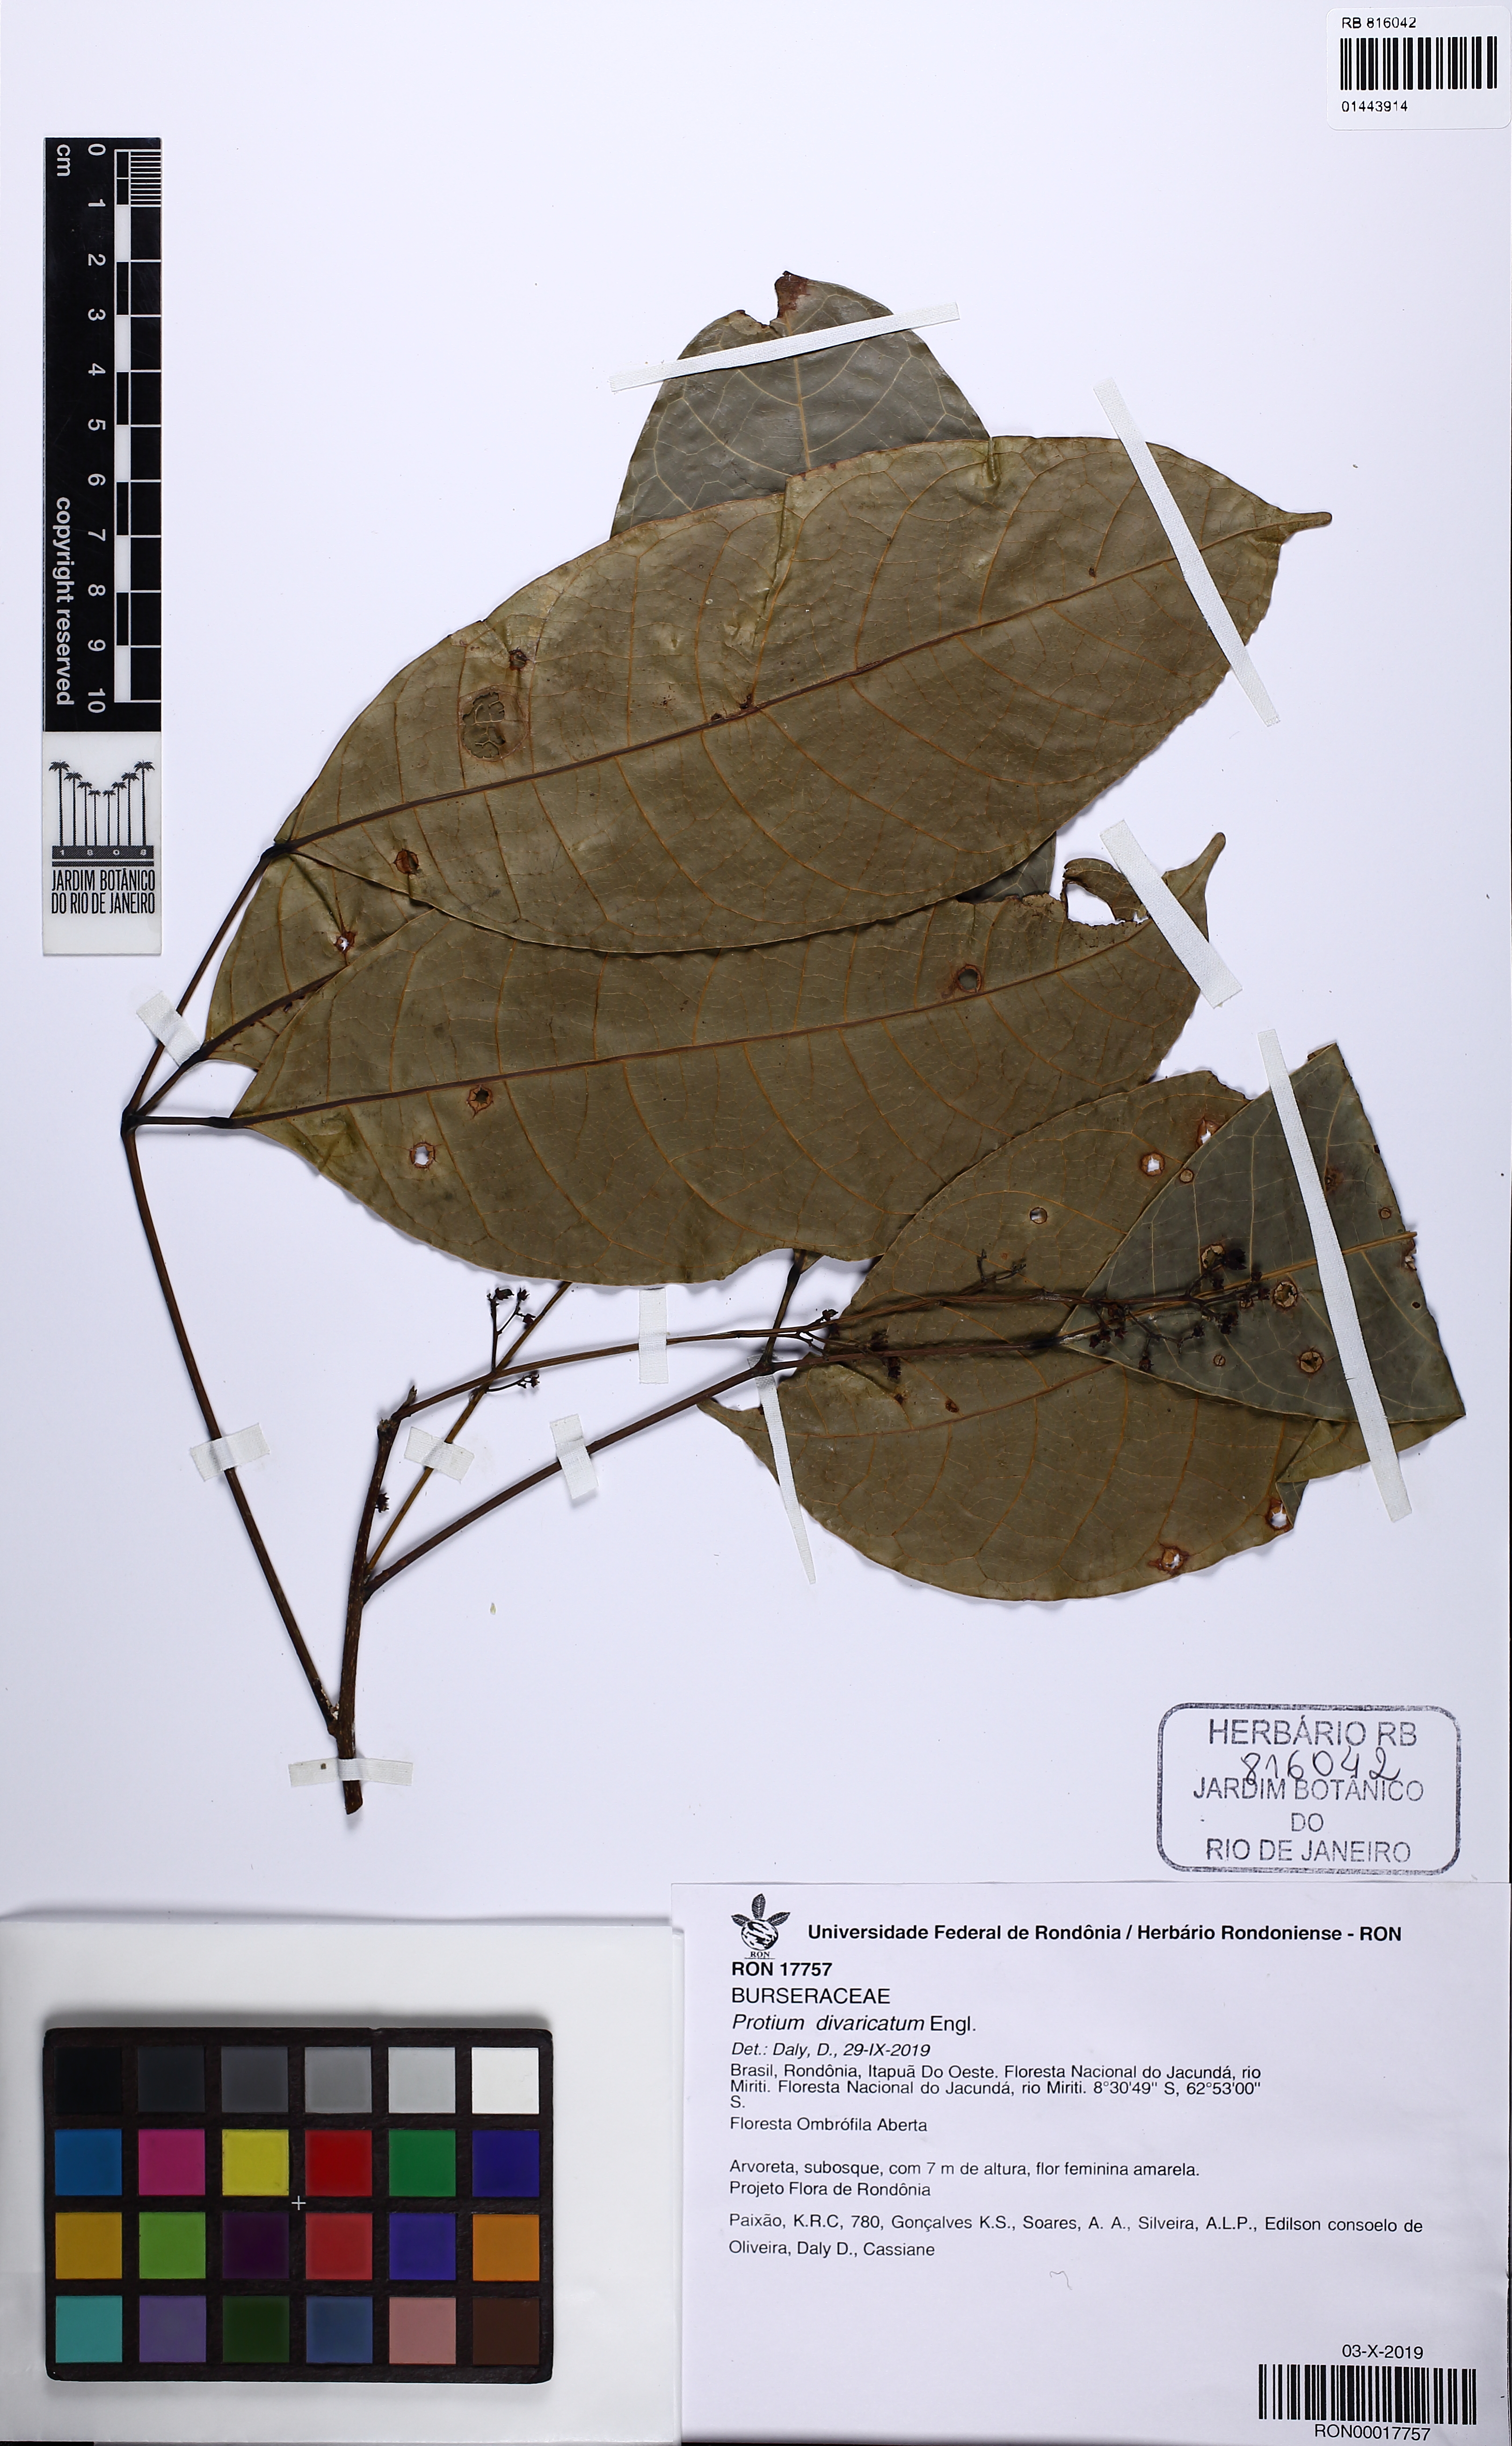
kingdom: Plantae
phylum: Tracheophyta
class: Magnoliopsida
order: Sapindales
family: Burseraceae
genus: Protium
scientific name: Protium divaricatum
